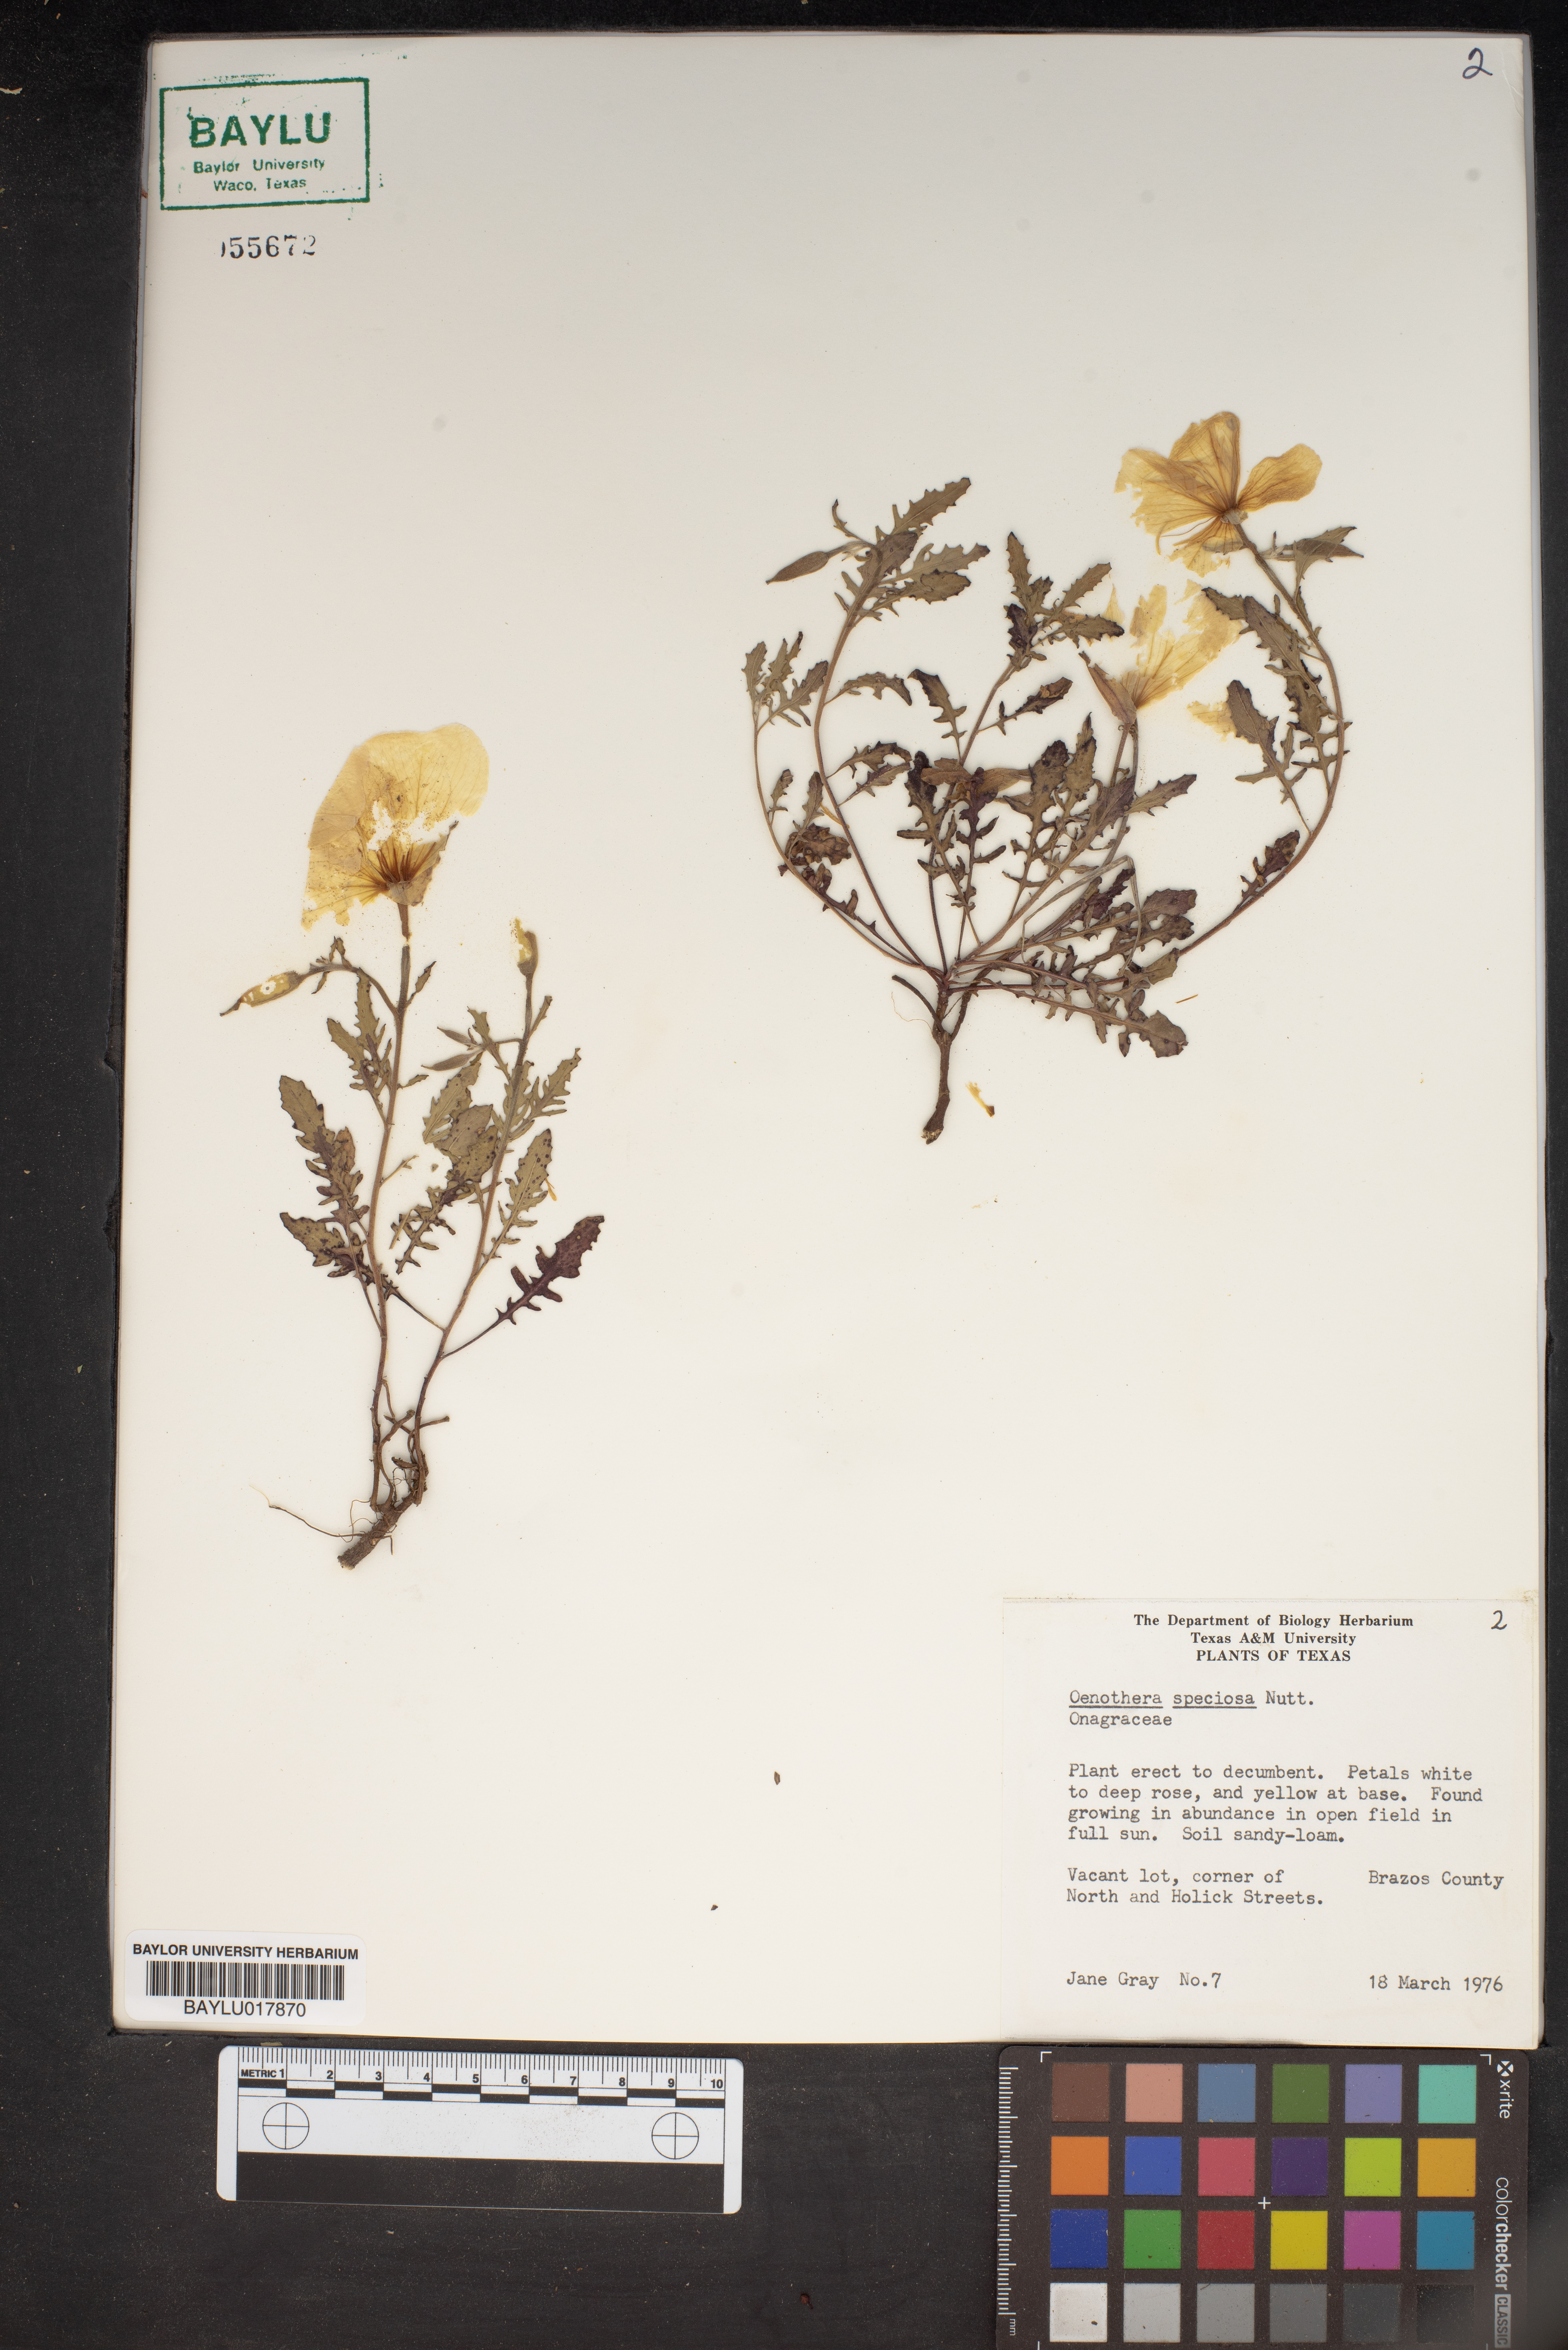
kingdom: Plantae
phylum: Tracheophyta
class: Magnoliopsida
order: Myrtales
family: Onagraceae
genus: Oenothera
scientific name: Oenothera speciosa
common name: White evening-primrose
